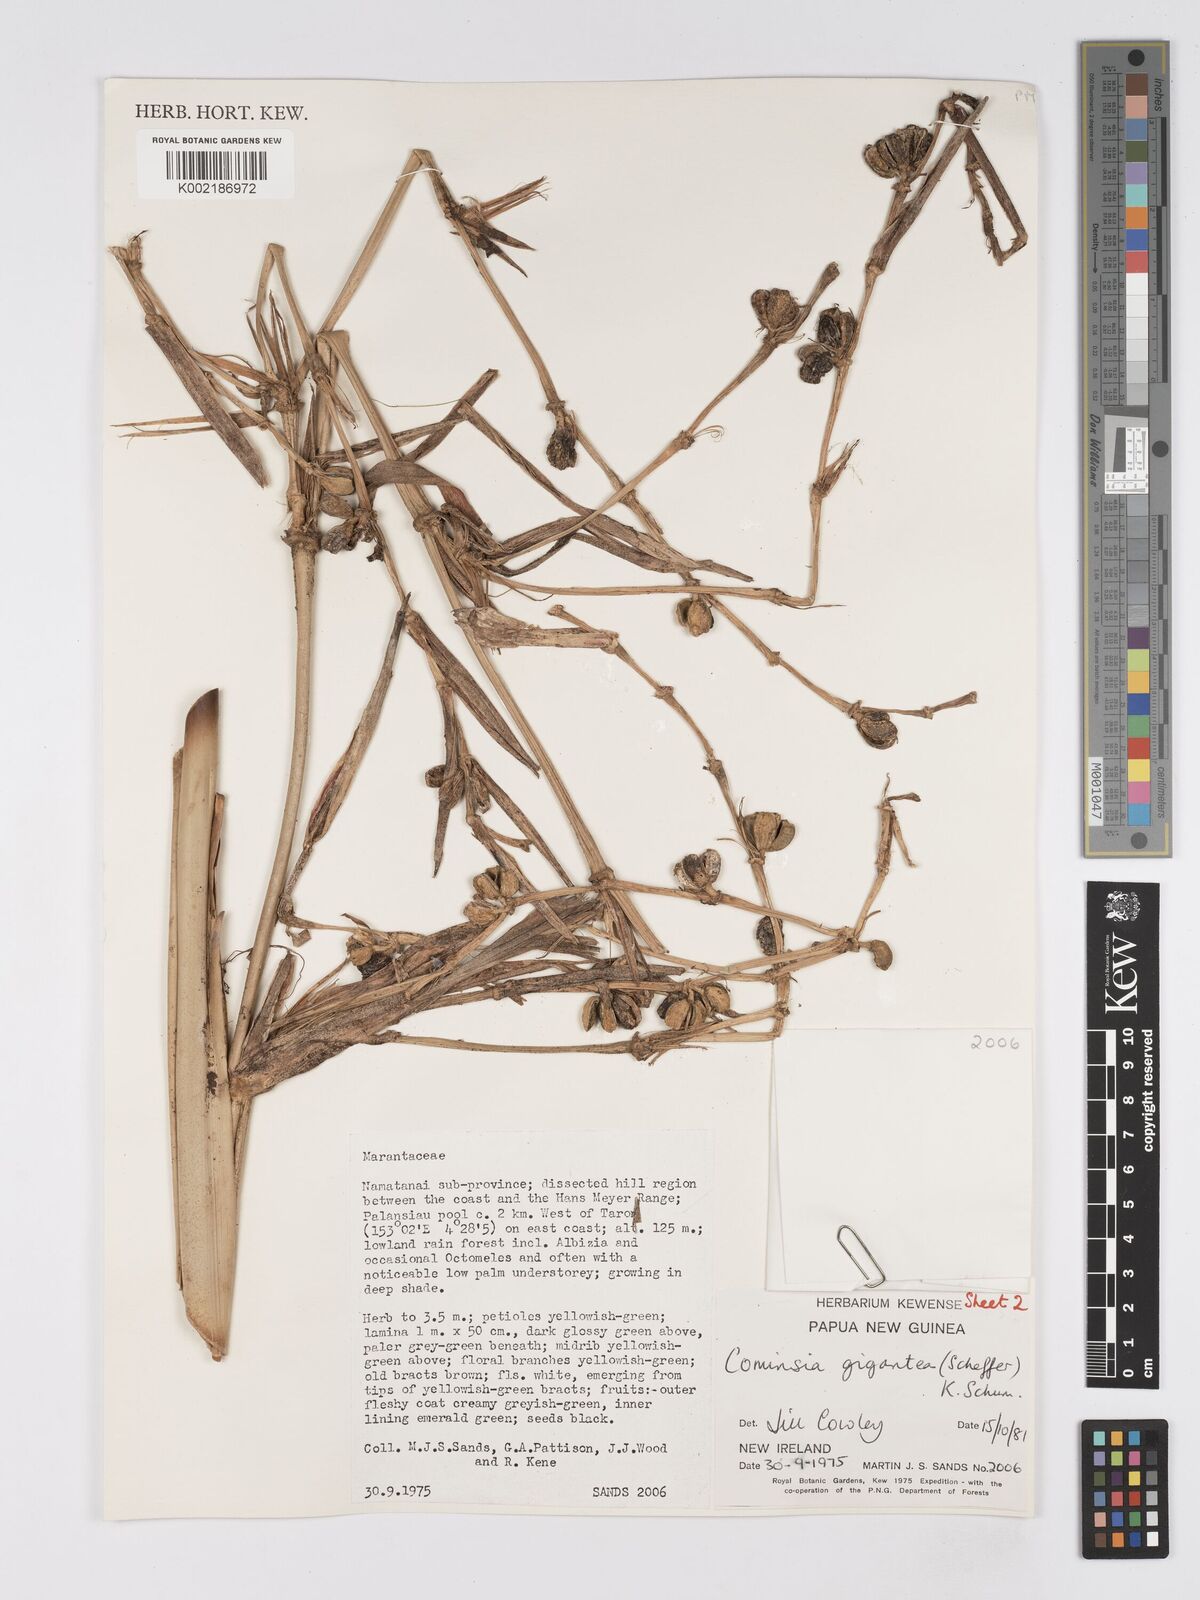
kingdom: Plantae
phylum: Tracheophyta
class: Liliopsida
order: Zingiberales
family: Marantaceae
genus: Phrynium
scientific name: Phrynium giganteum
